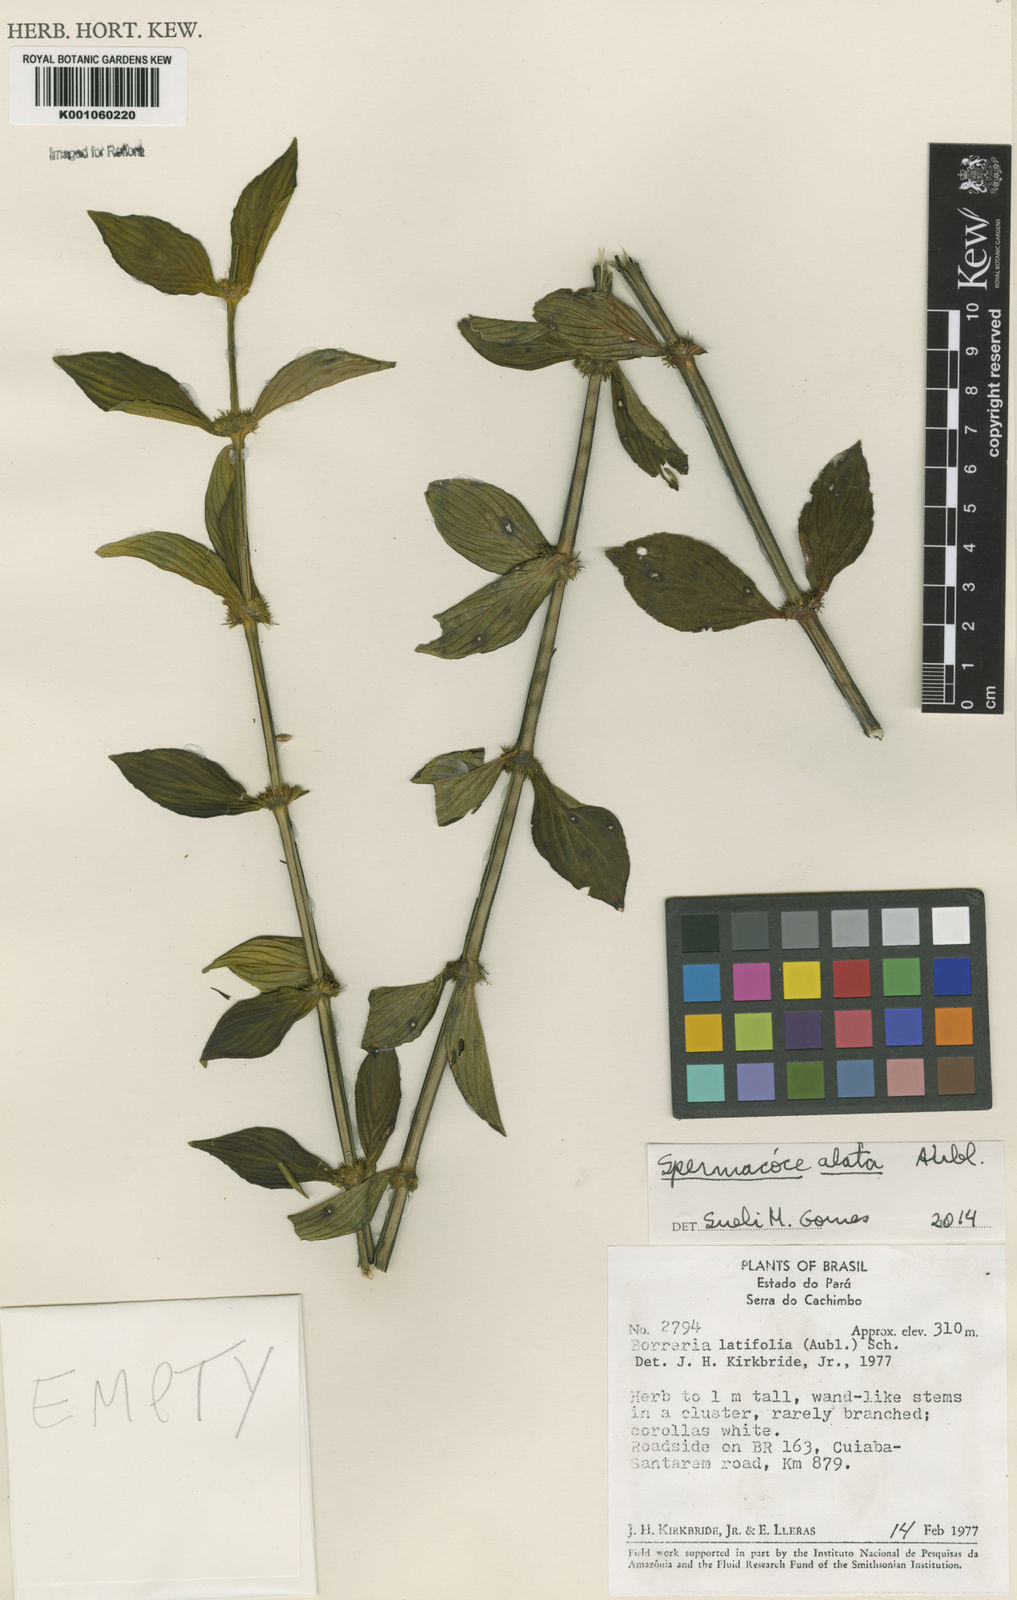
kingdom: Plantae
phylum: Tracheophyta
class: Magnoliopsida
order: Gentianales
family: Rubiaceae
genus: Spermacoce
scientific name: Spermacoce
